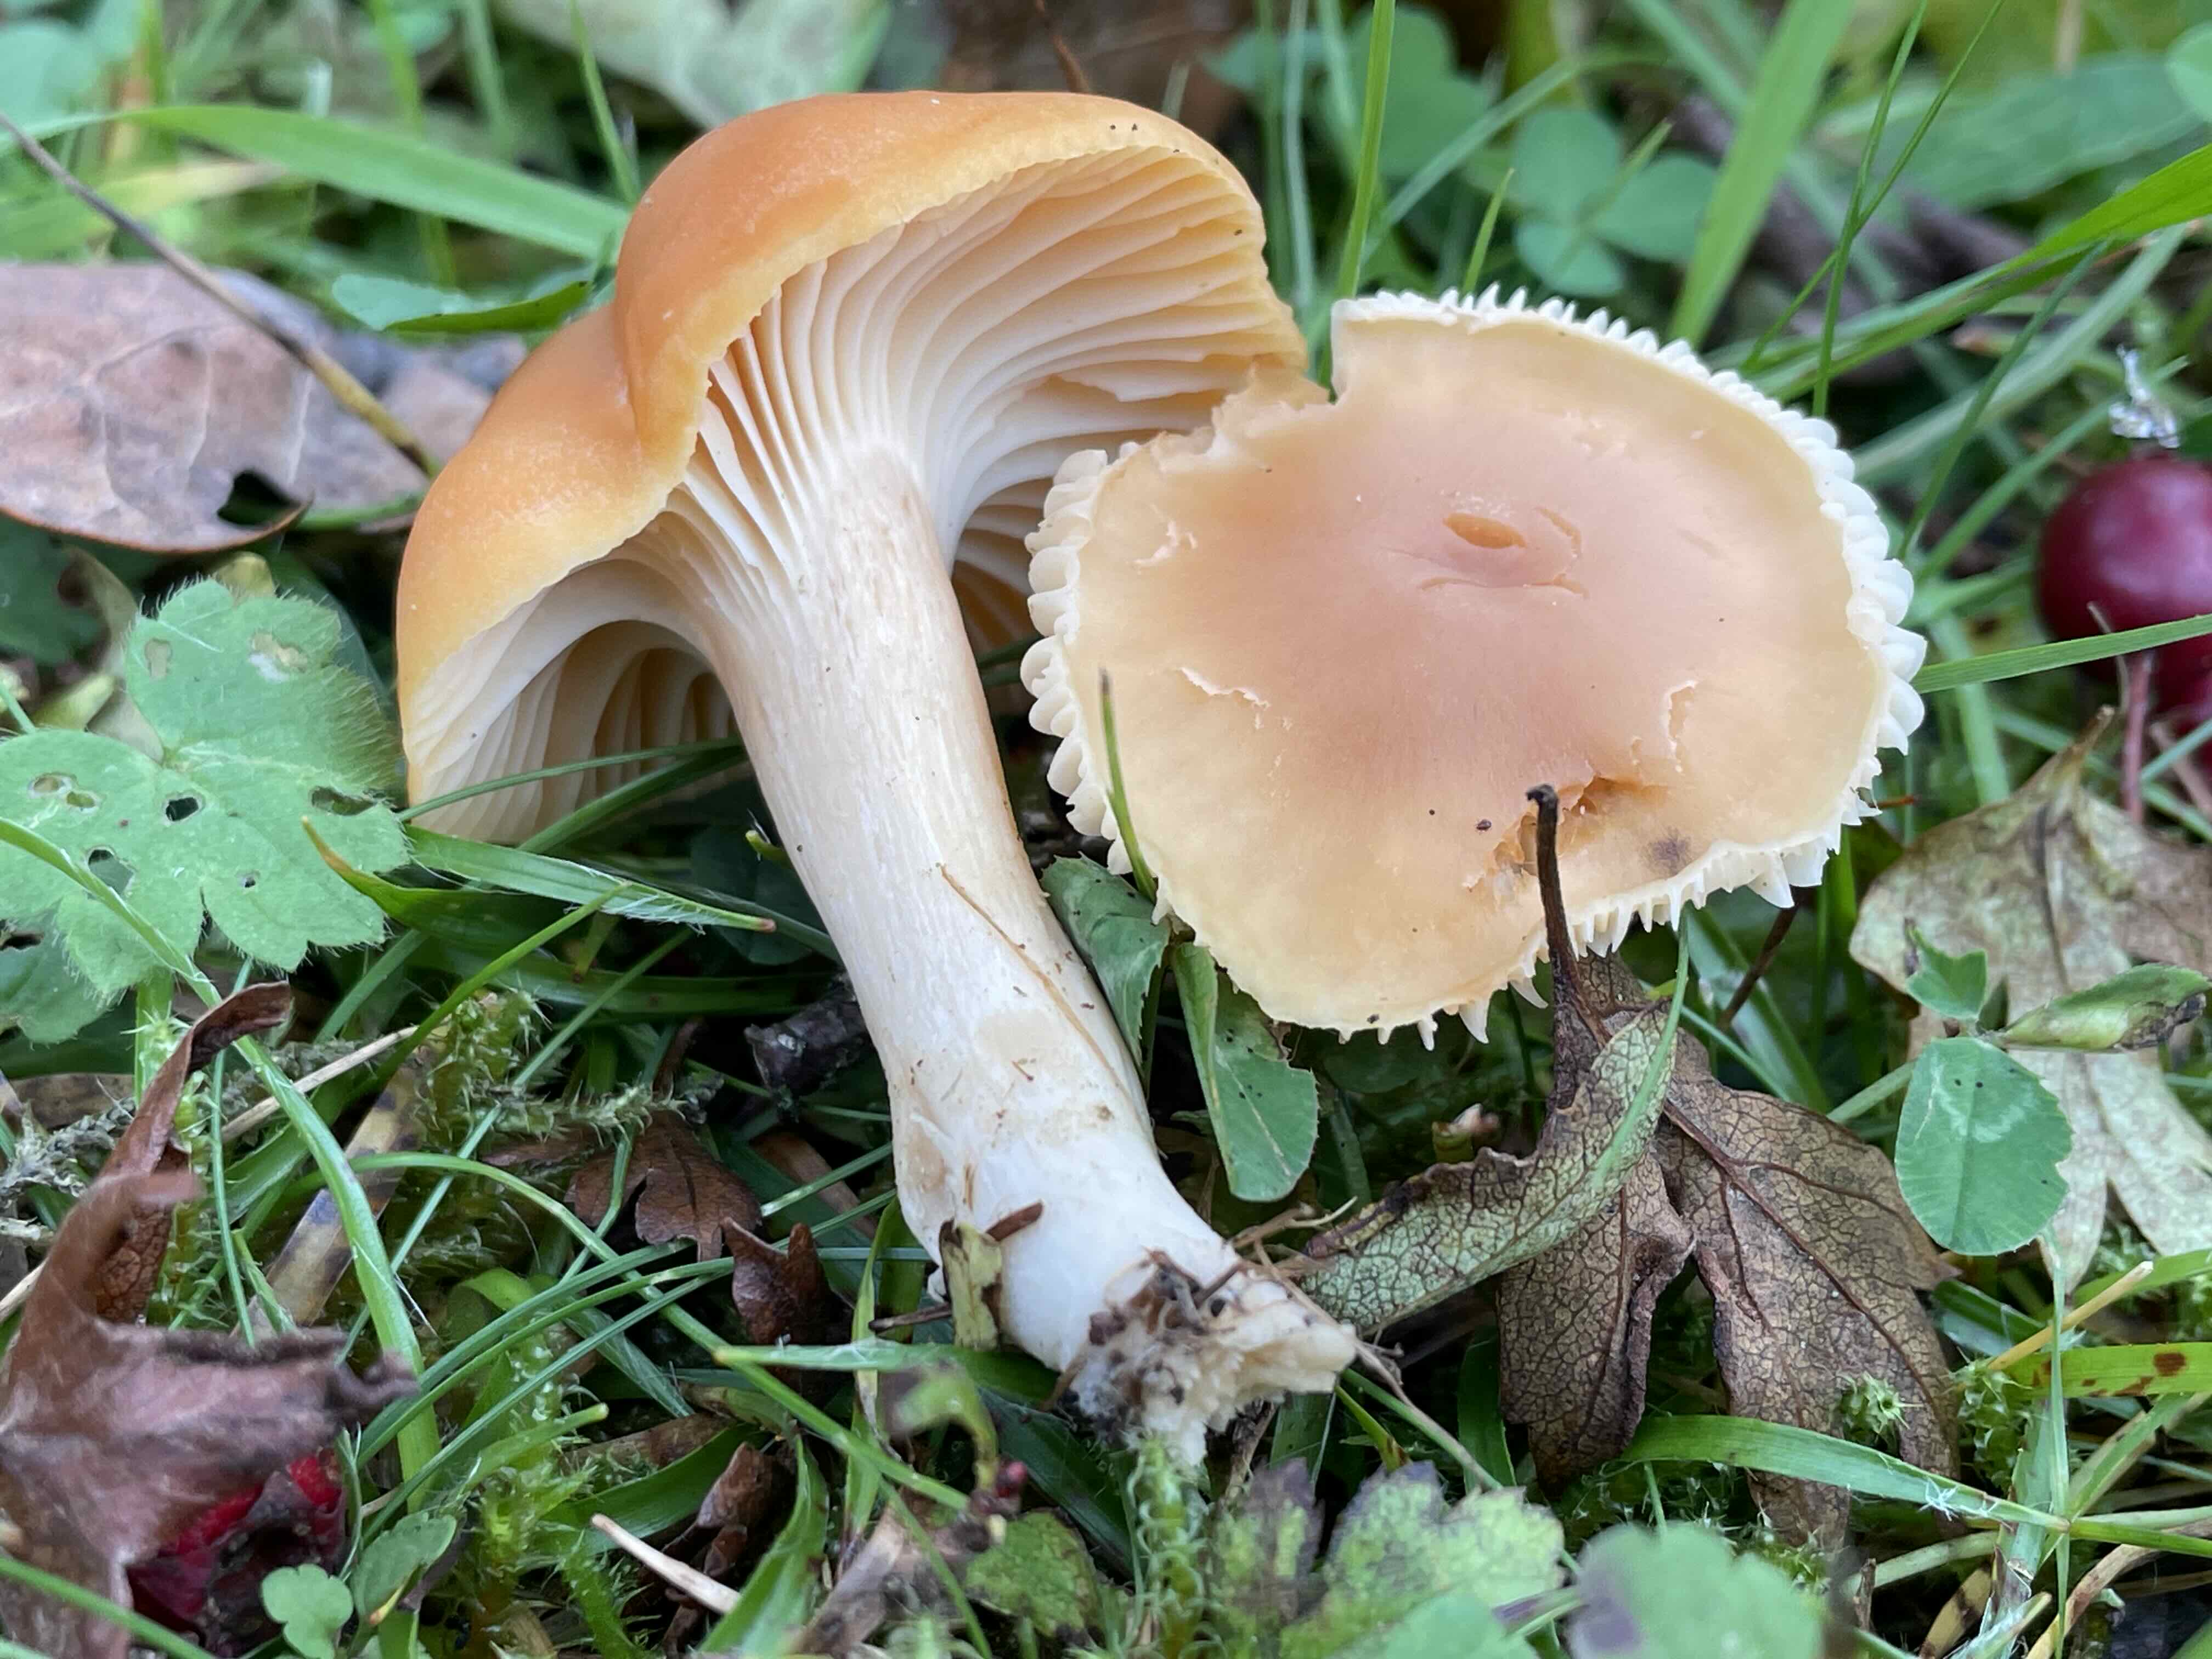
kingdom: Fungi
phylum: Basidiomycota
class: Agaricomycetes
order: Agaricales
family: Hygrophoraceae
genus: Cuphophyllus
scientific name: Cuphophyllus pratensis
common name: eng-vokshat
